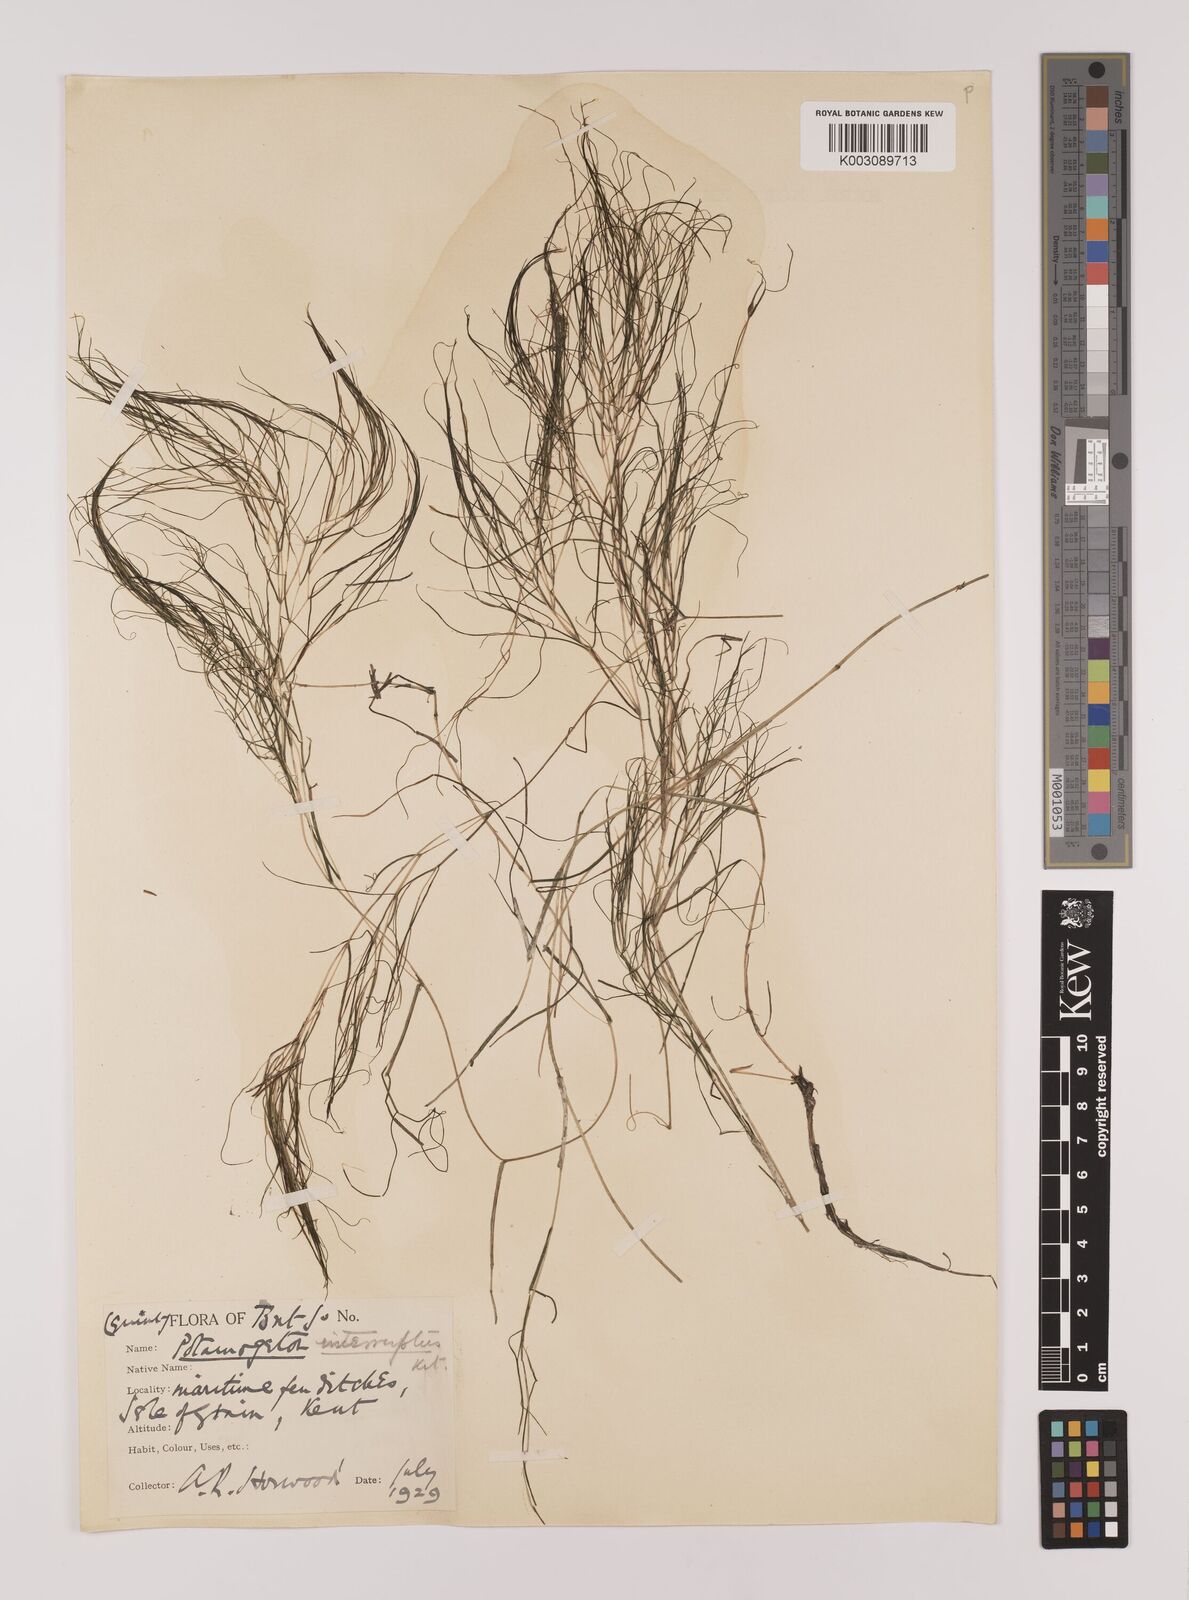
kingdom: Plantae
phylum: Tracheophyta
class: Liliopsida
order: Alismatales
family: Potamogetonaceae
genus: Stuckenia
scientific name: Stuckenia pectinata
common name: Sago pondweed
